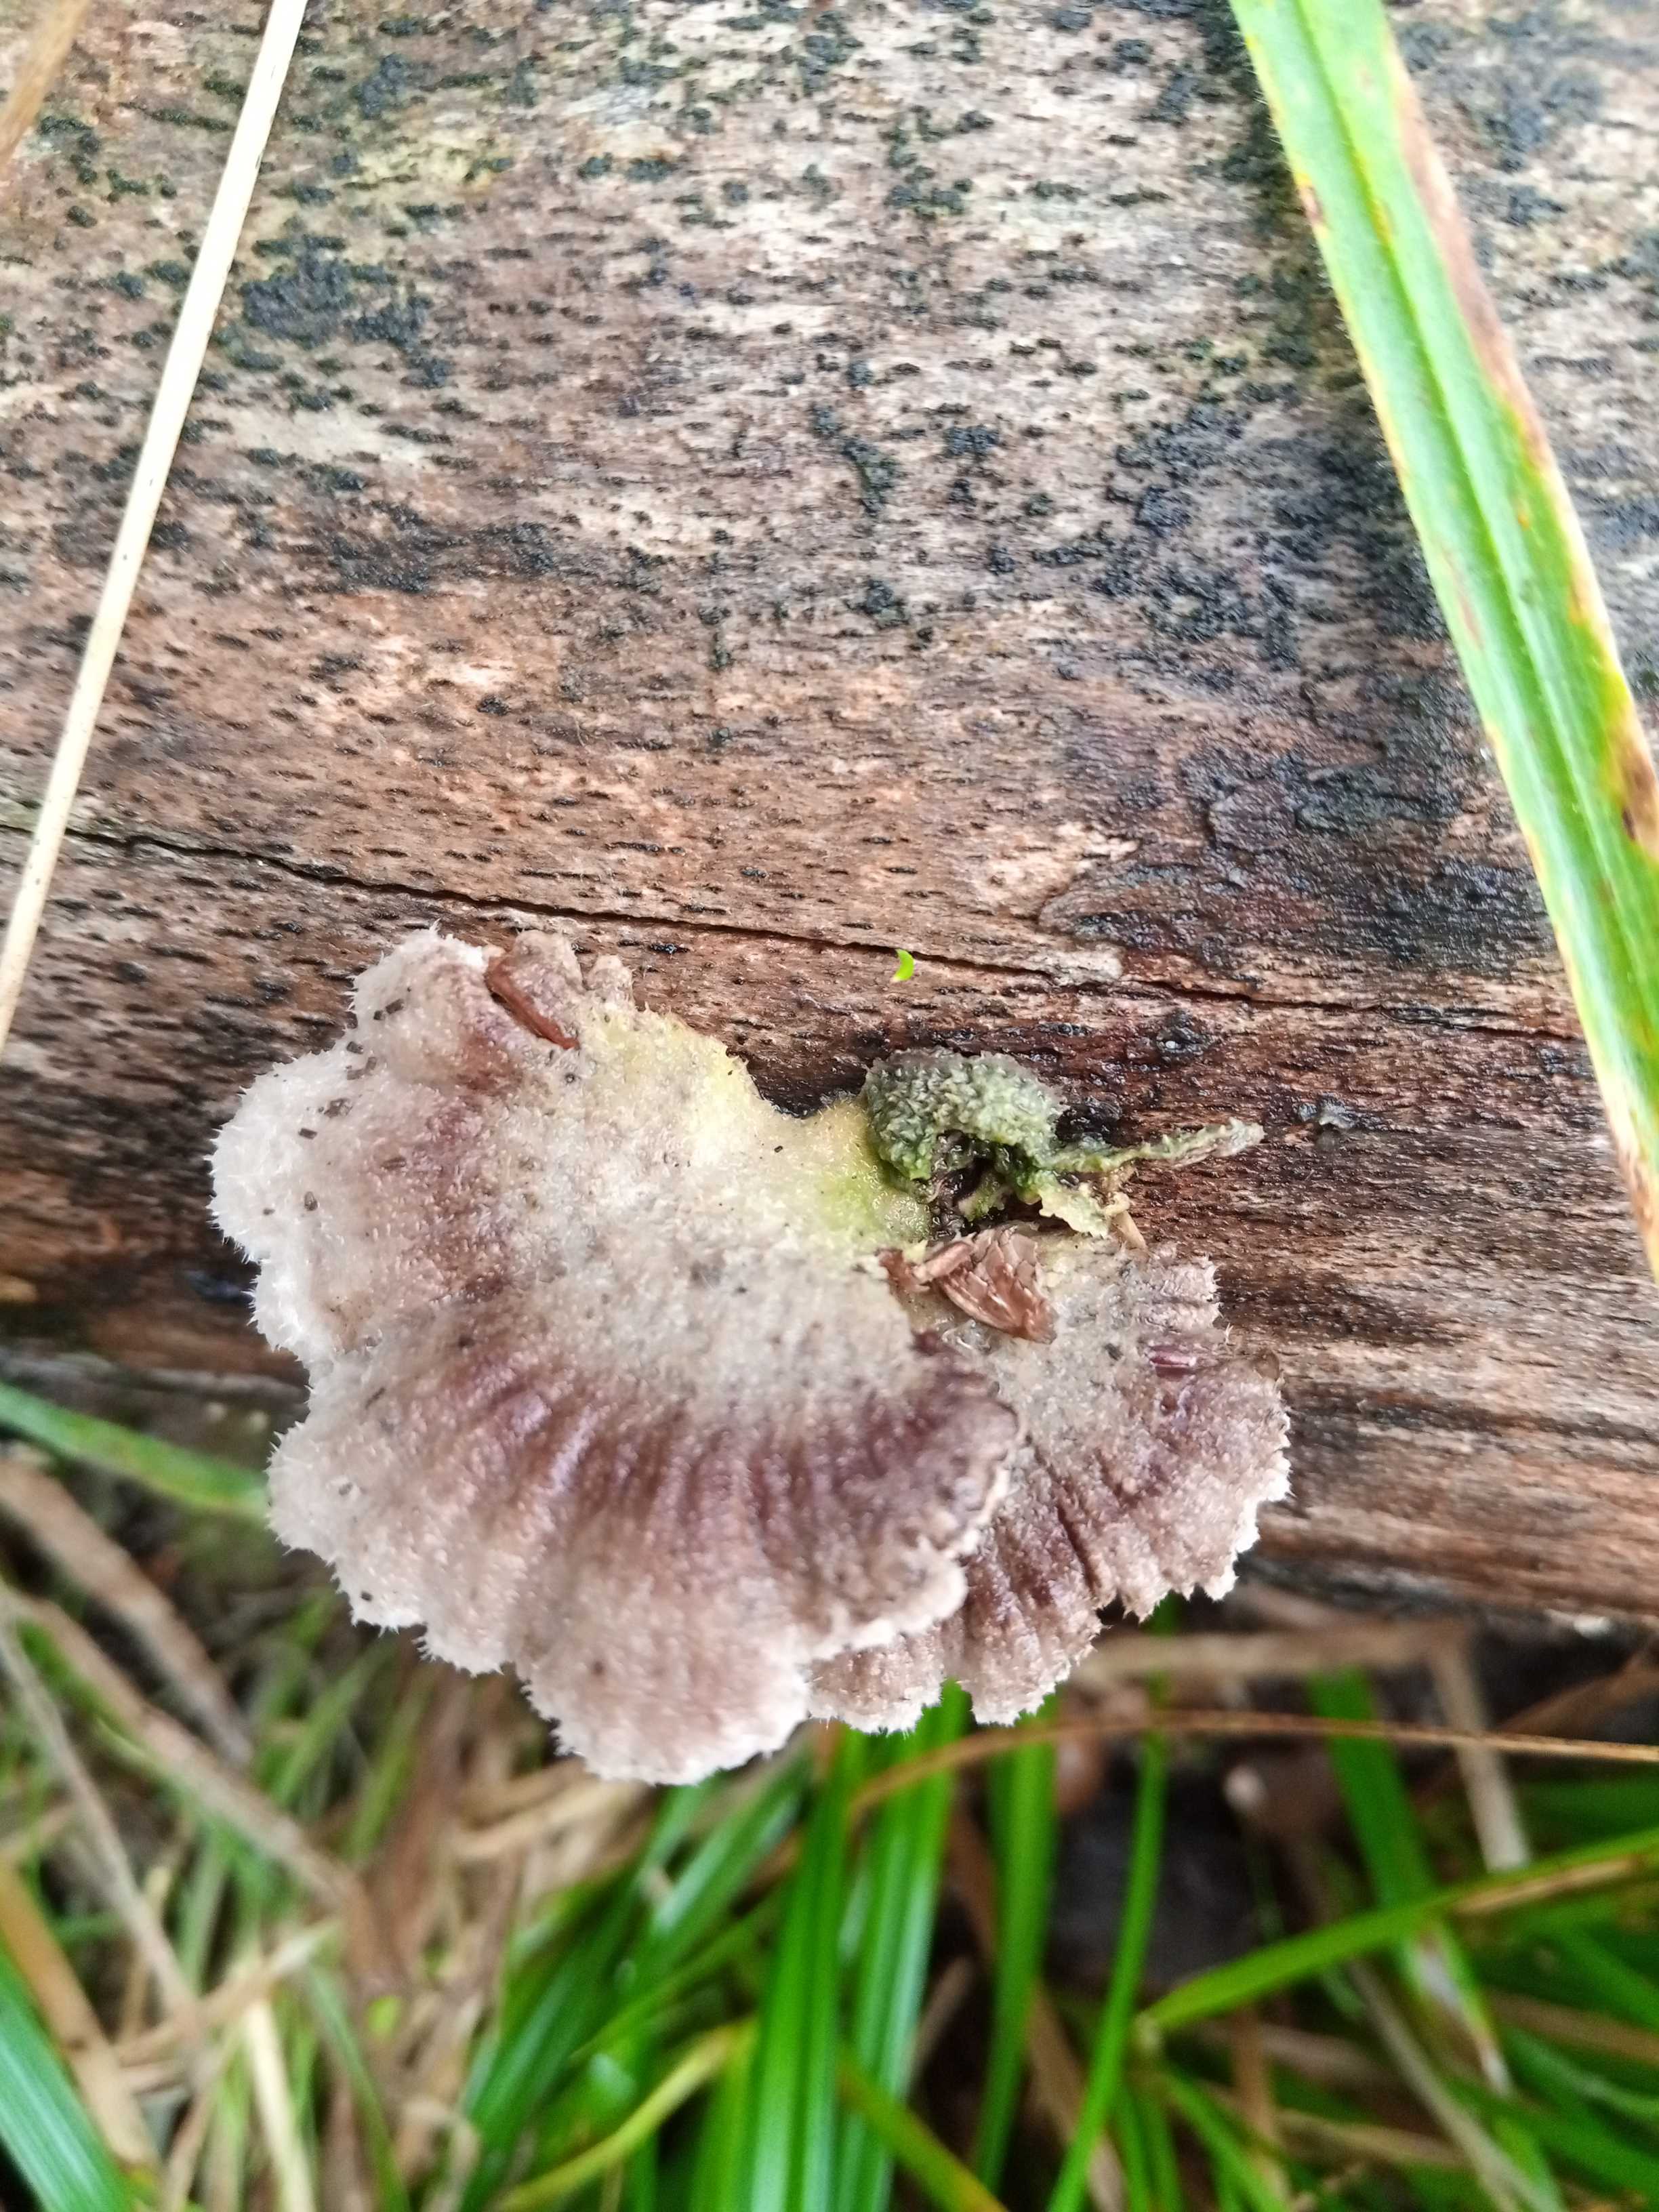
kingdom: Fungi
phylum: Basidiomycota
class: Agaricomycetes
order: Agaricales
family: Schizophyllaceae
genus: Schizophyllum
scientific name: Schizophyllum commune
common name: kløvblad
